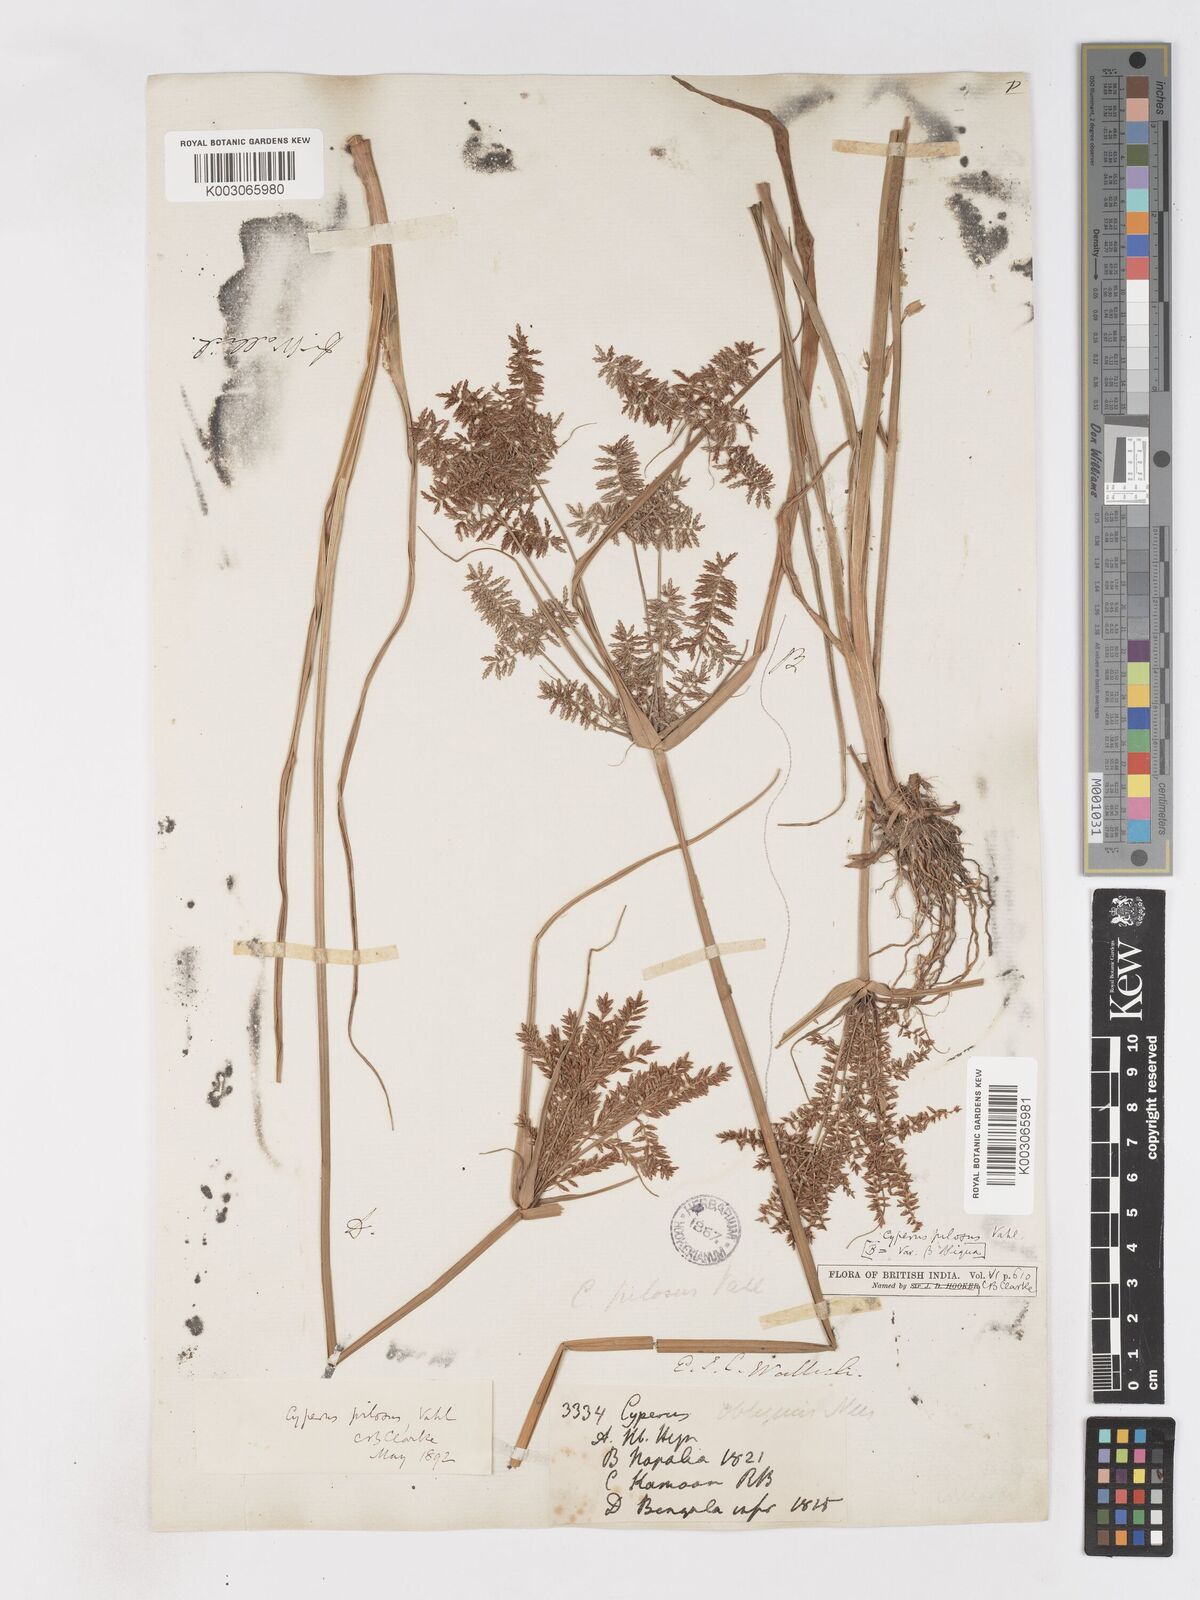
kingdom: Plantae
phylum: Tracheophyta
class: Liliopsida
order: Poales
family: Cyperaceae
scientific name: Cyperaceae
